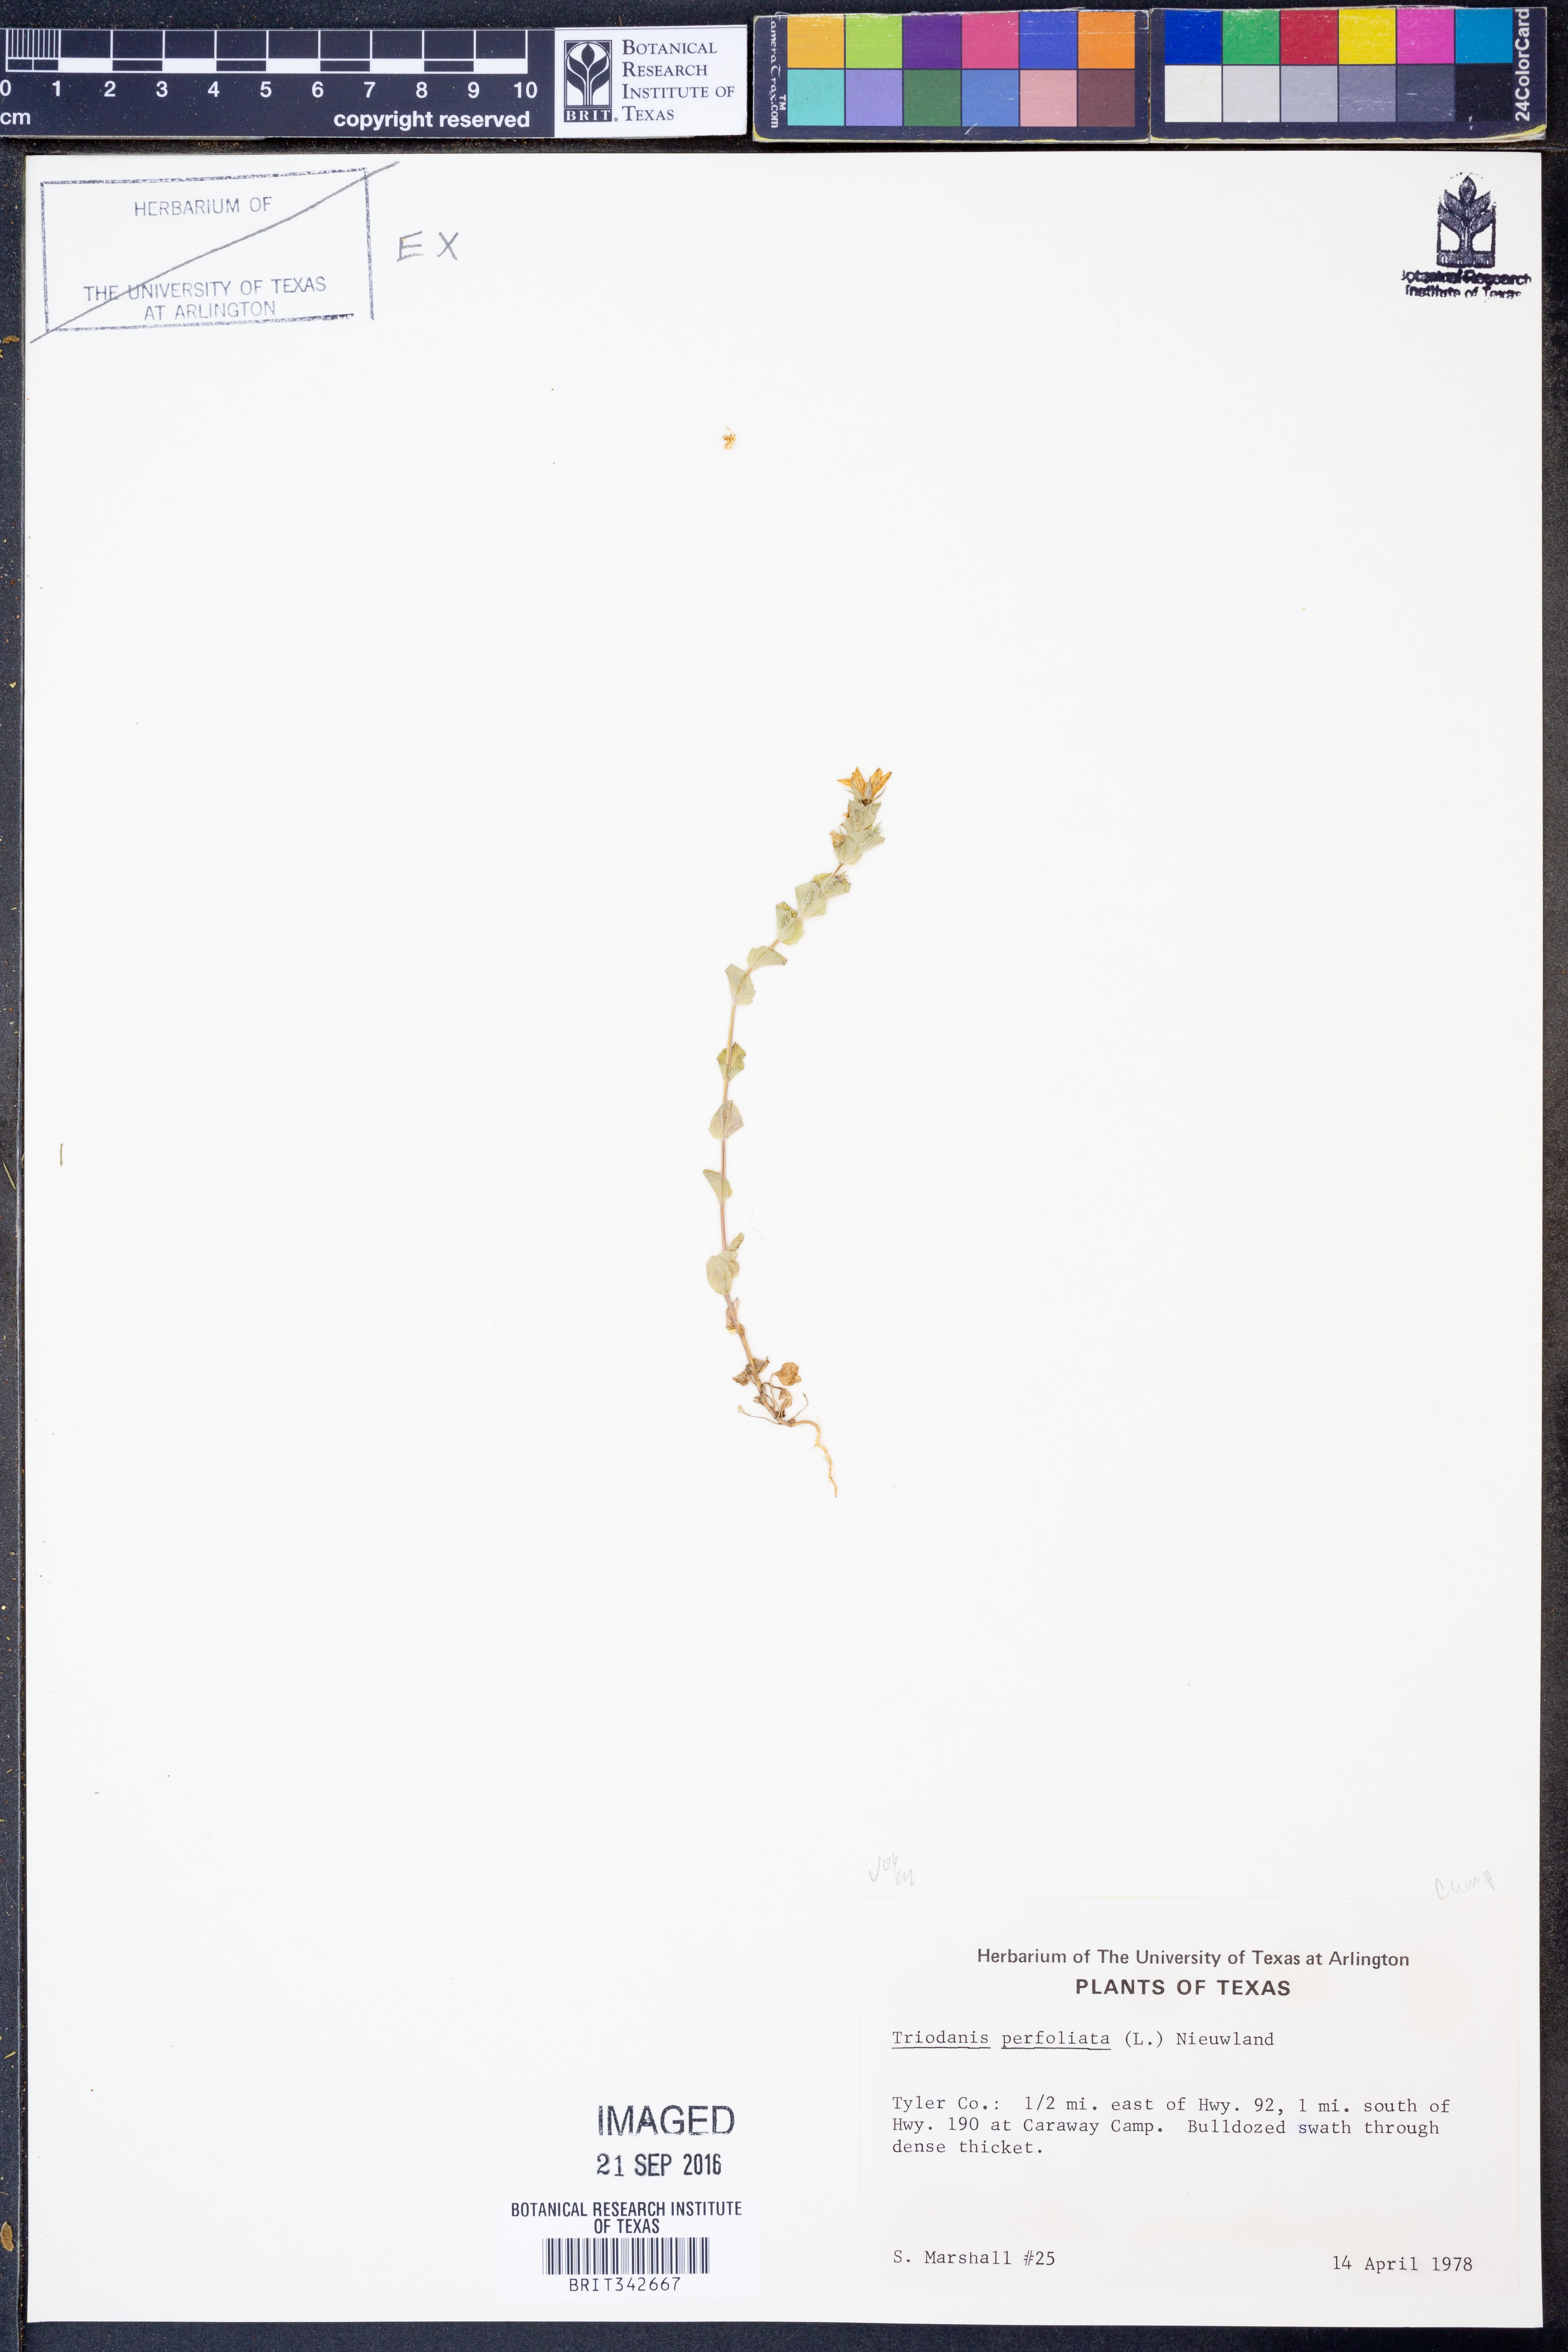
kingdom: Plantae
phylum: Tracheophyta
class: Magnoliopsida
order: Asterales
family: Campanulaceae
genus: Triodanis
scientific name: Triodanis perfoliata
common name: Clasping venus' looking-glass
